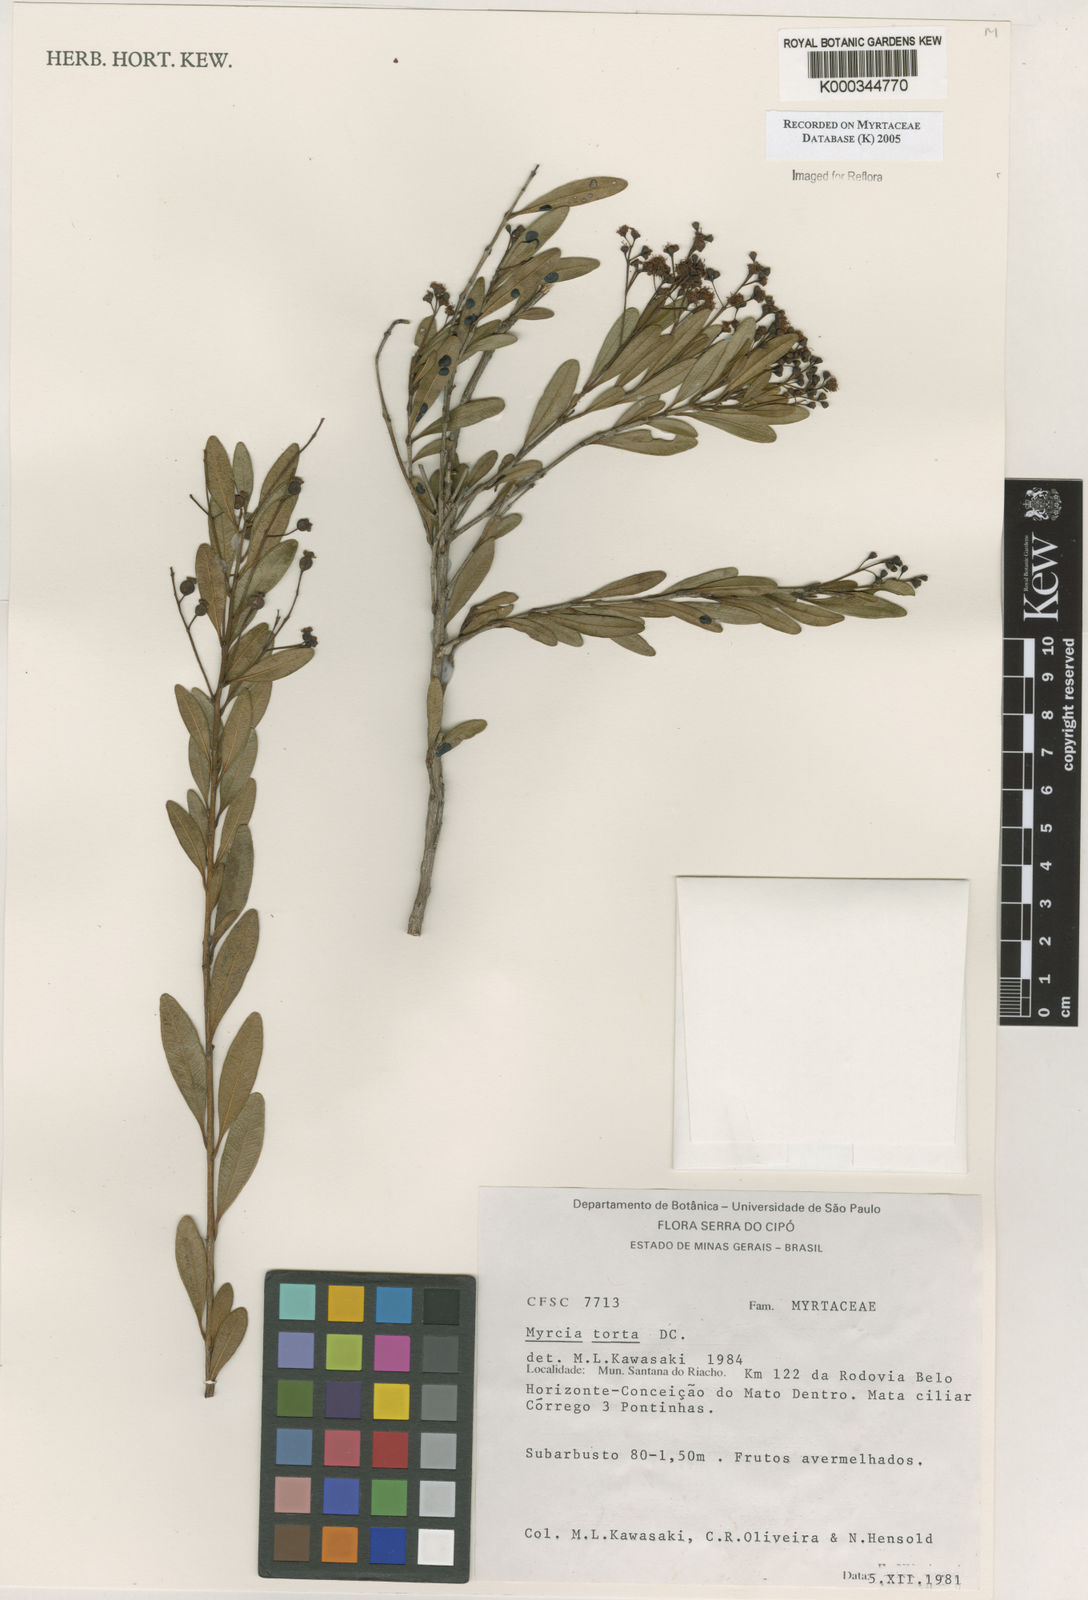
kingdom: Plantae
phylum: Tracheophyta
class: Magnoliopsida
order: Myrtales
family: Myrtaceae
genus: Myrcia
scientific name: Myrcia guianensis
